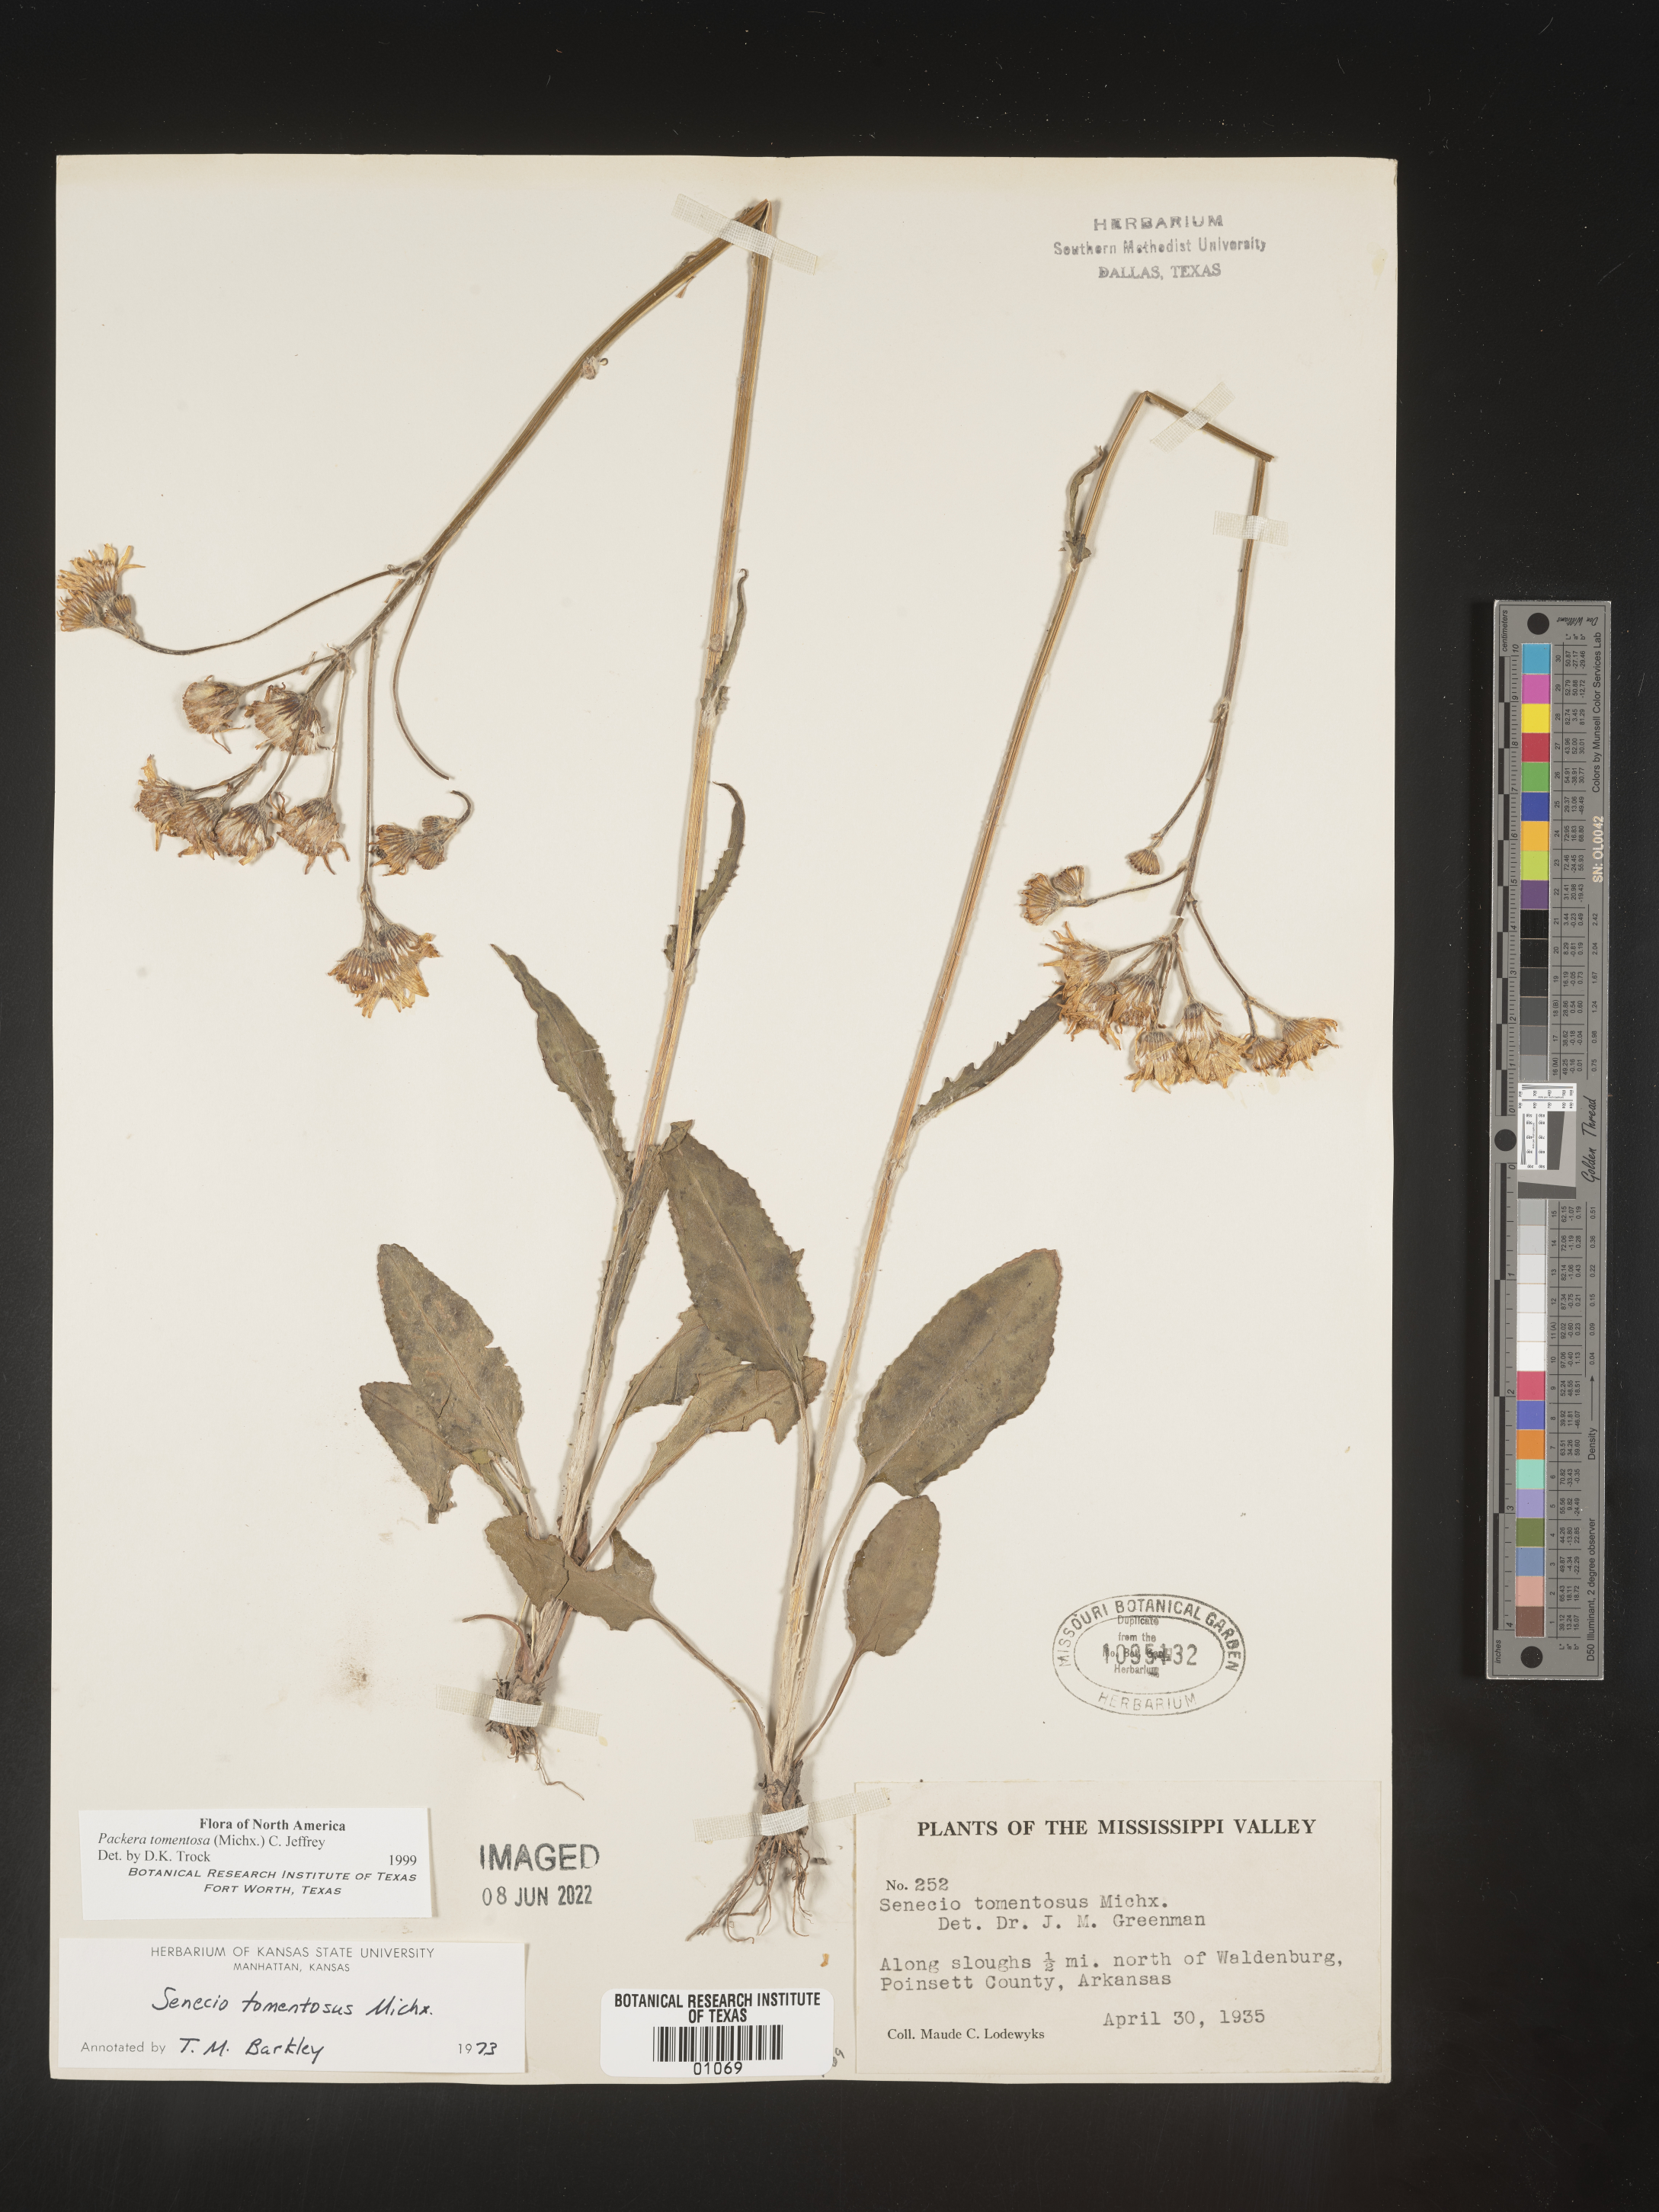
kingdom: Plantae
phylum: Tracheophyta
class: Magnoliopsida
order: Asterales
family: Asteraceae
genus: Packera
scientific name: Packera dubia
